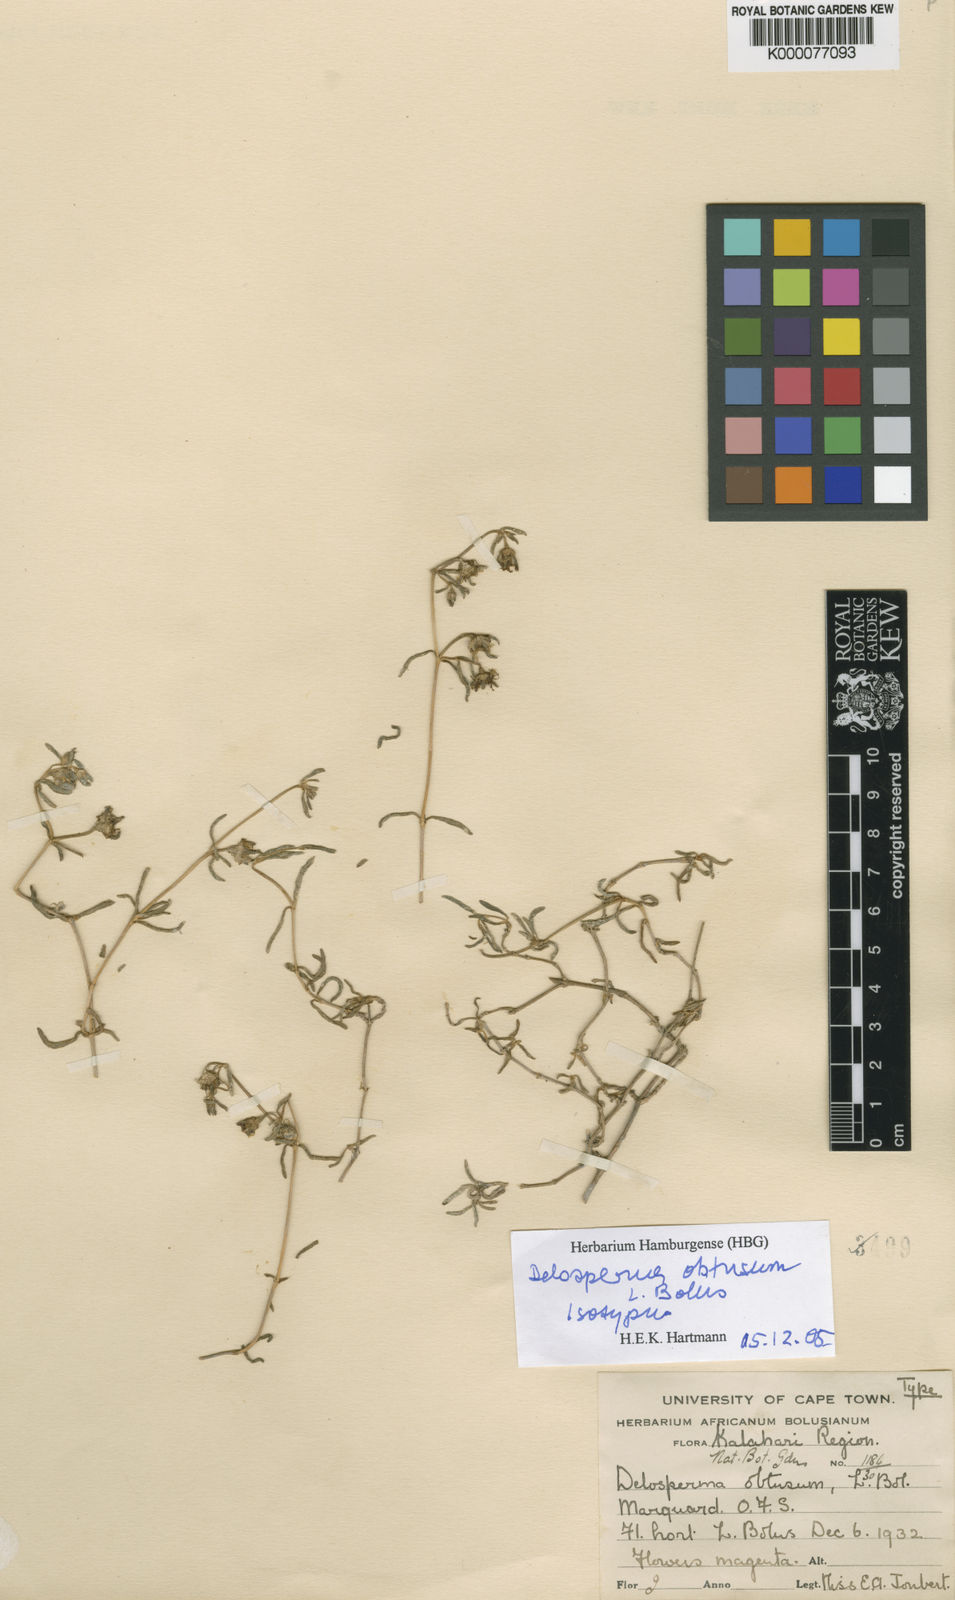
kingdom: Plantae
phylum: Tracheophyta
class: Magnoliopsida
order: Caryophyllales
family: Aizoaceae
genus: Delosperma
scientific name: Delosperma obtusum
